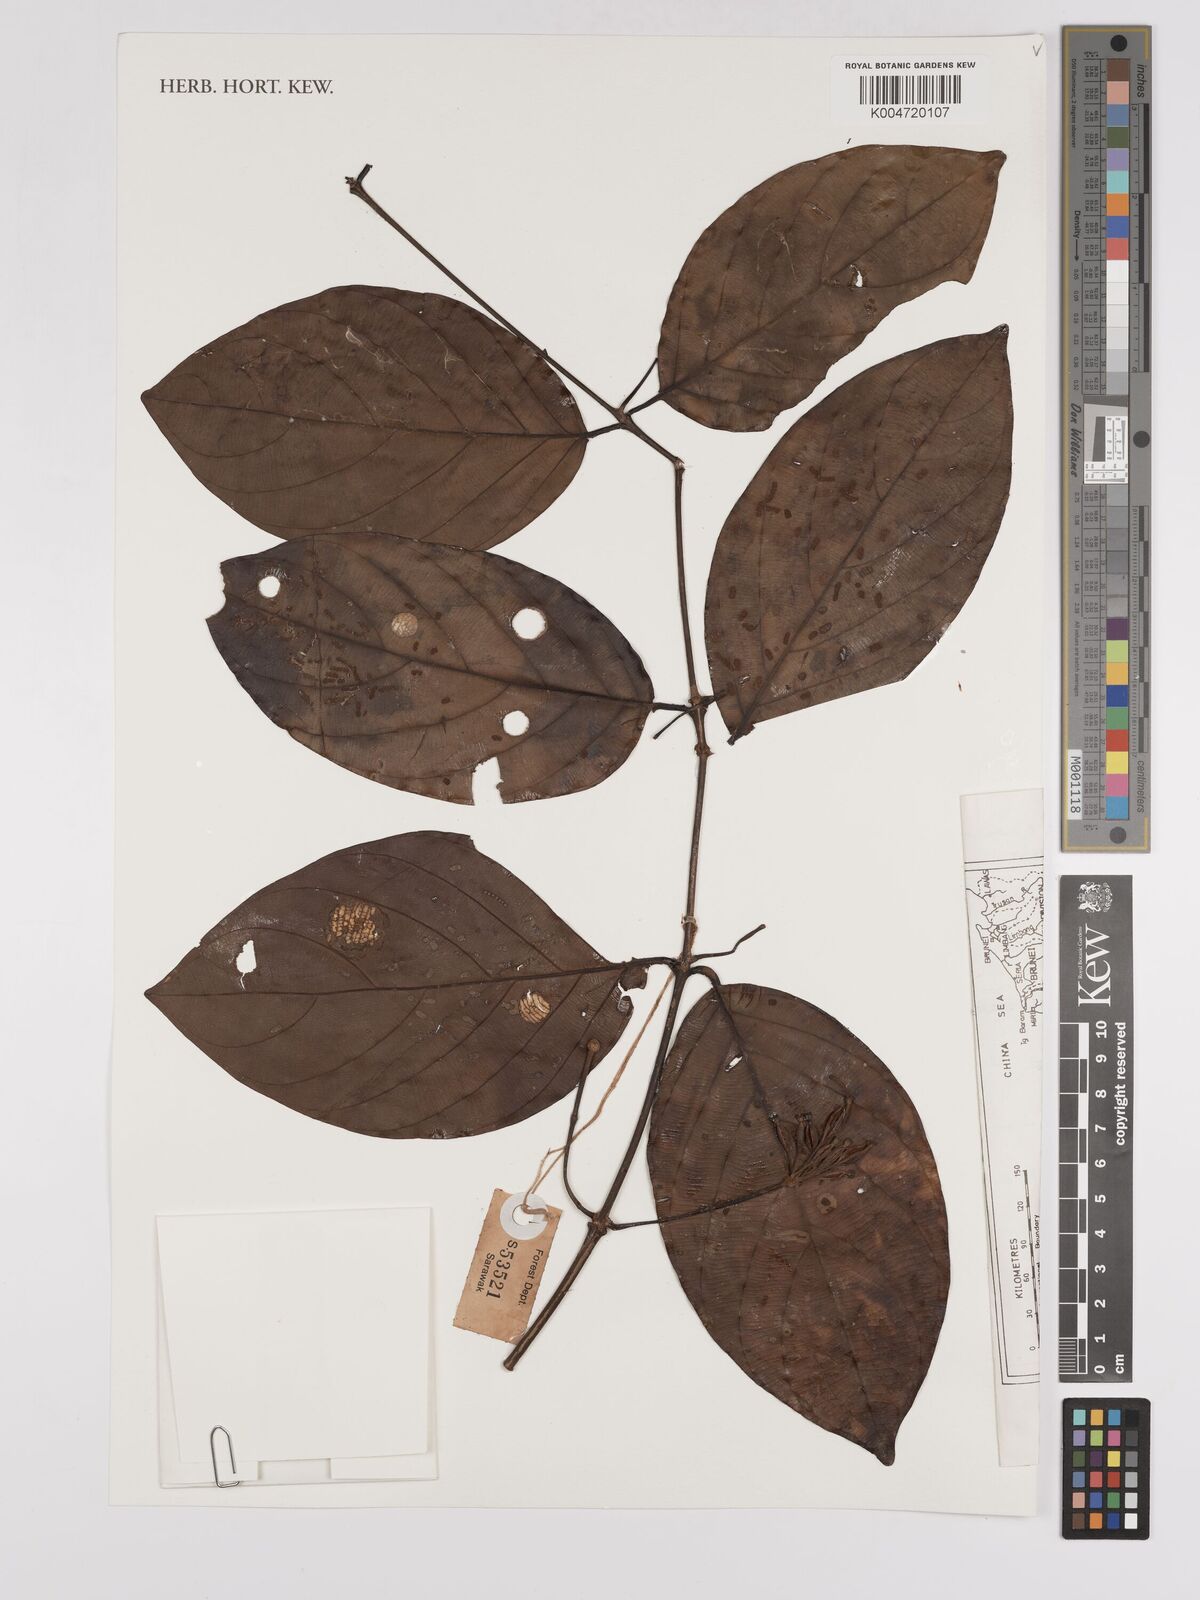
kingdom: Plantae
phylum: Tracheophyta
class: Magnoliopsida
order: Gentianales
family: Rubiaceae
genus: Uncaria
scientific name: Uncaria
